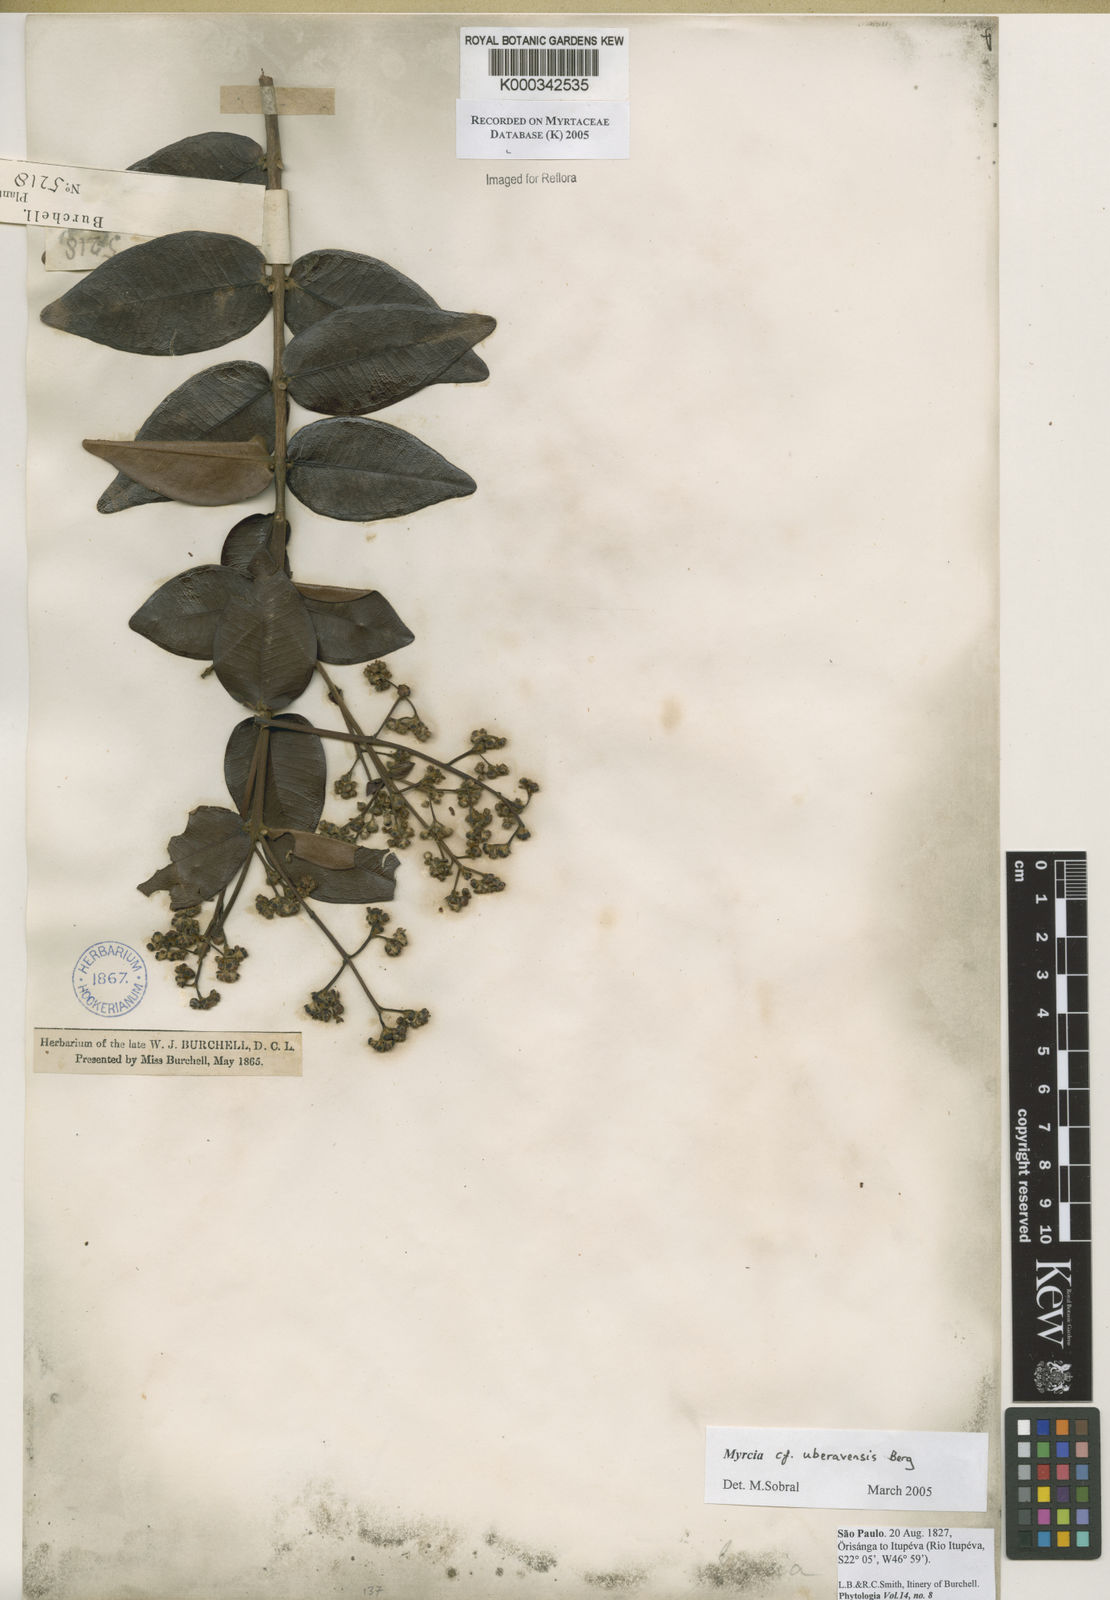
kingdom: Plantae
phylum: Tracheophyta
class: Magnoliopsida
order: Myrtales
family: Myrtaceae
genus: Myrcia
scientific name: Myrcia uberavensis
